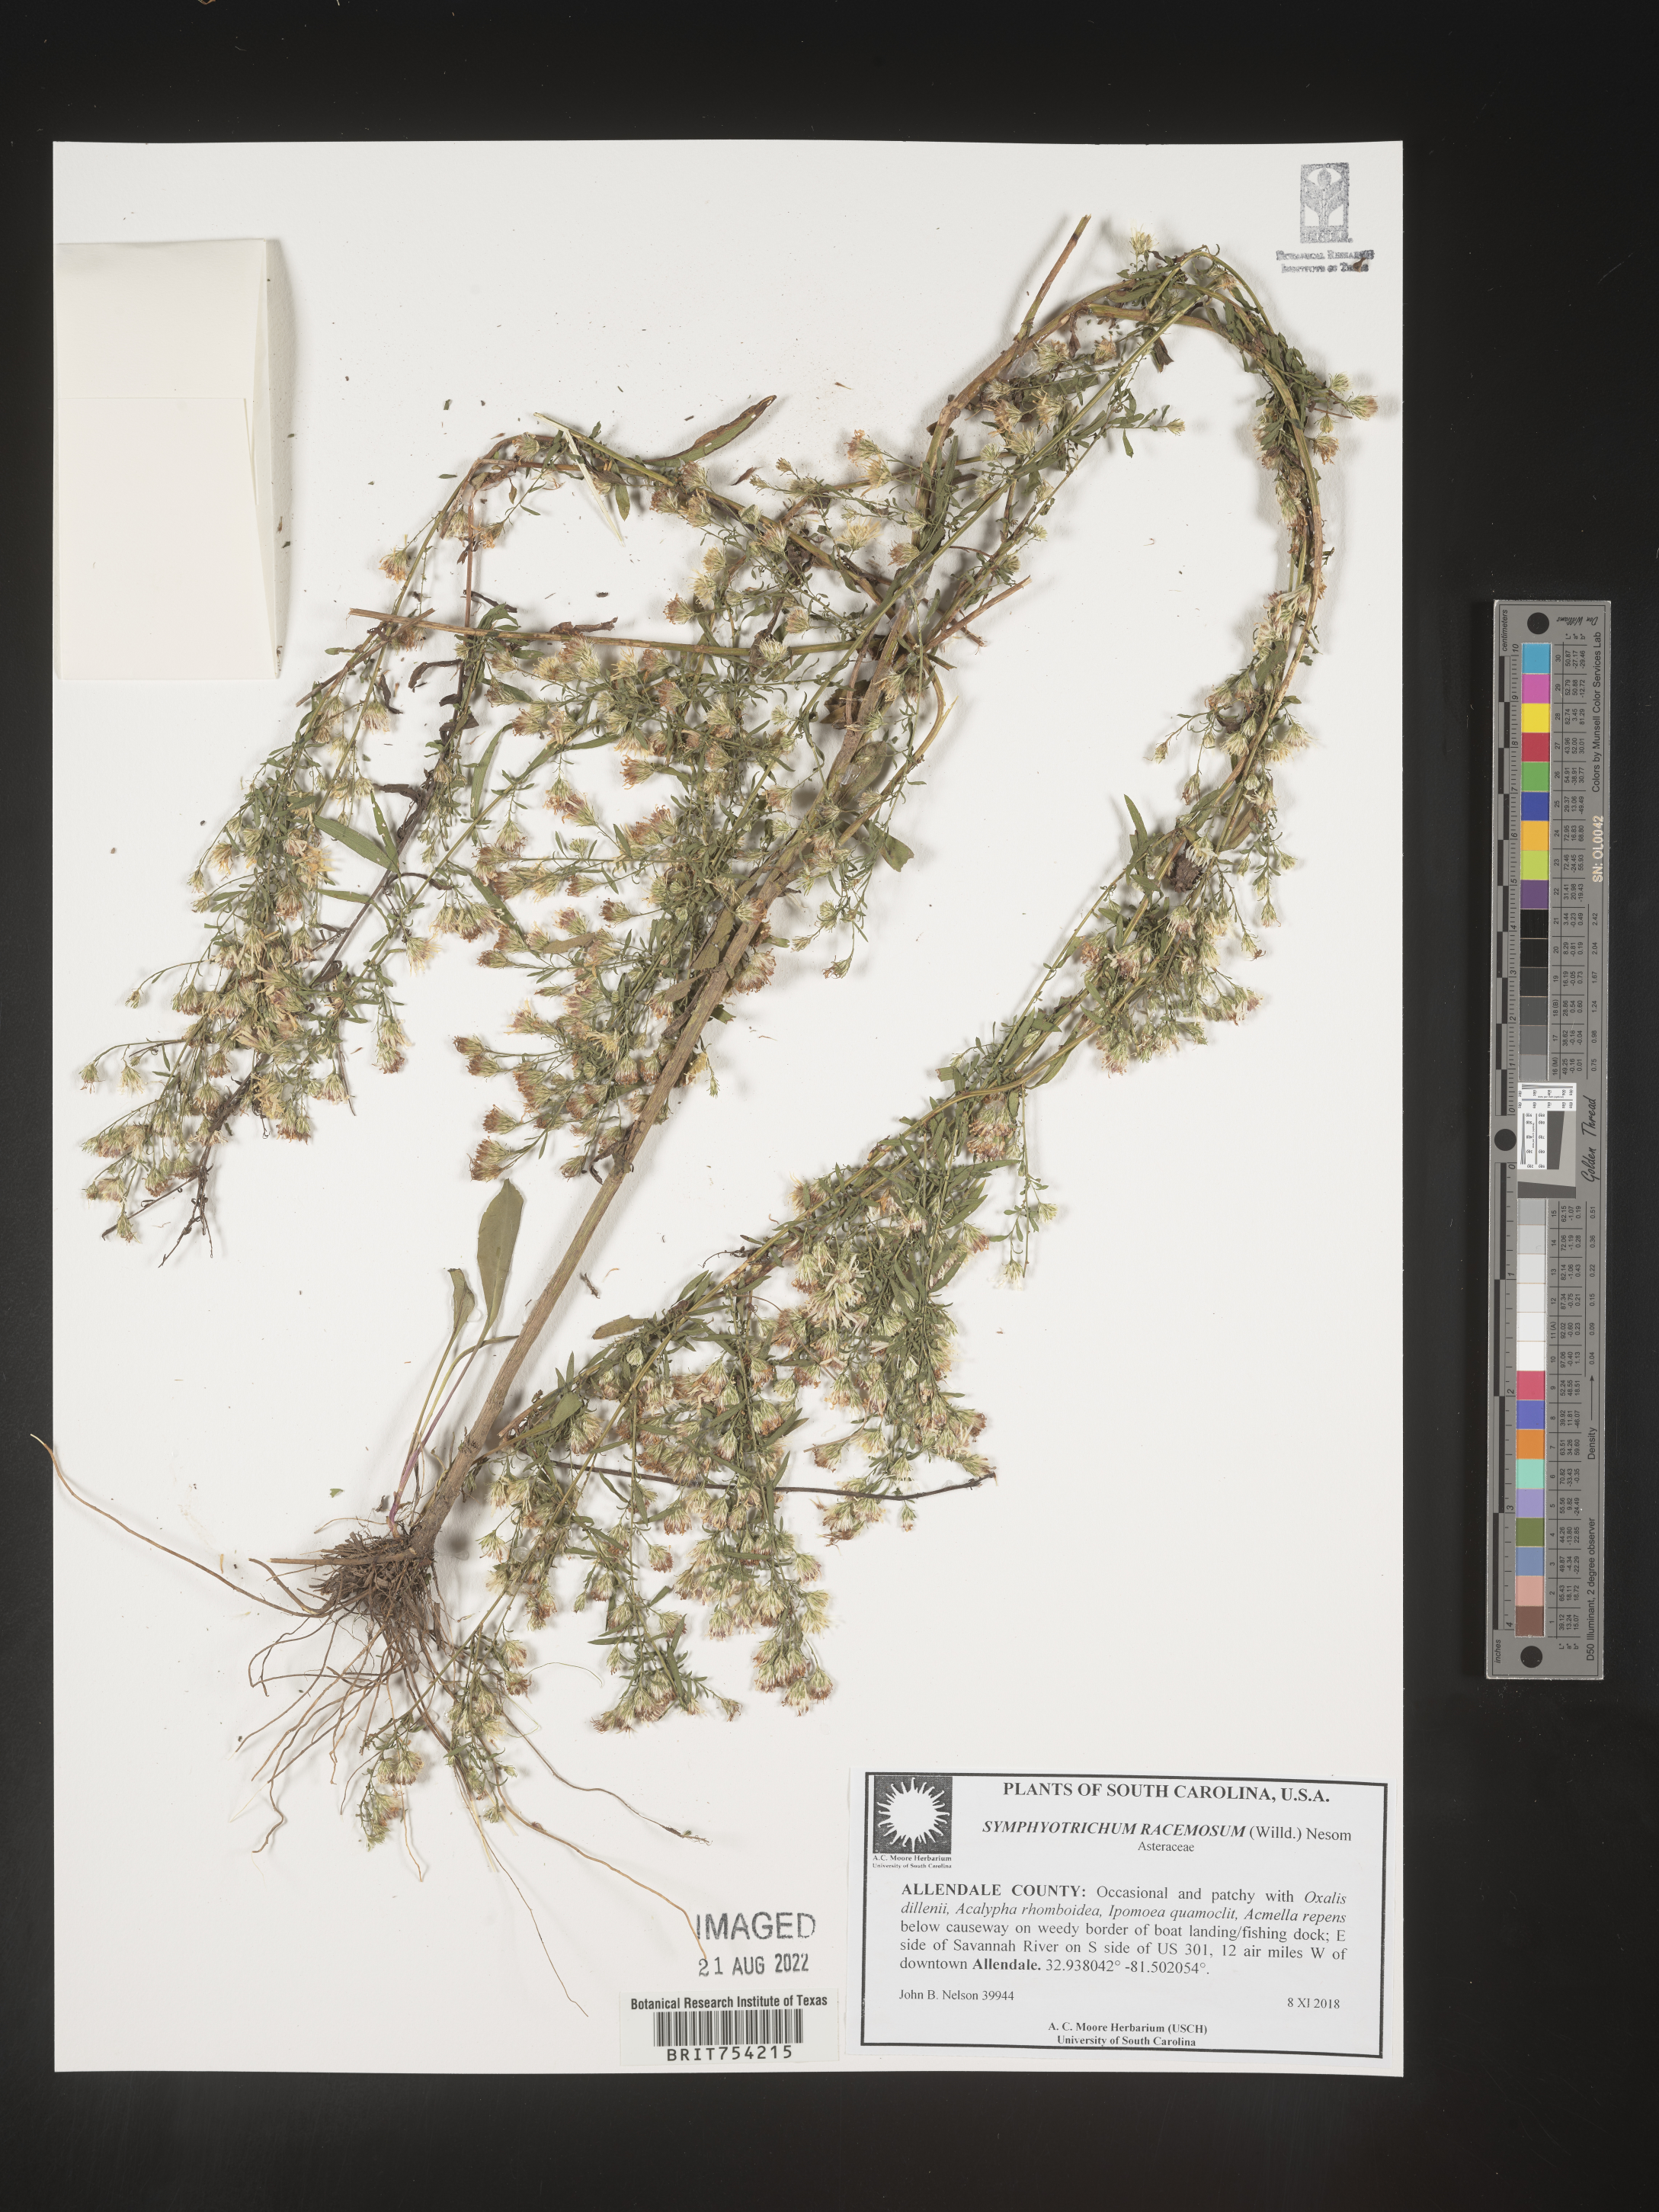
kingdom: Plantae
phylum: Tracheophyta
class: Magnoliopsida
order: Asterales
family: Asteraceae
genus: Symphyotrichum
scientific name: Symphyotrichum racemosum
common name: Small white aster
